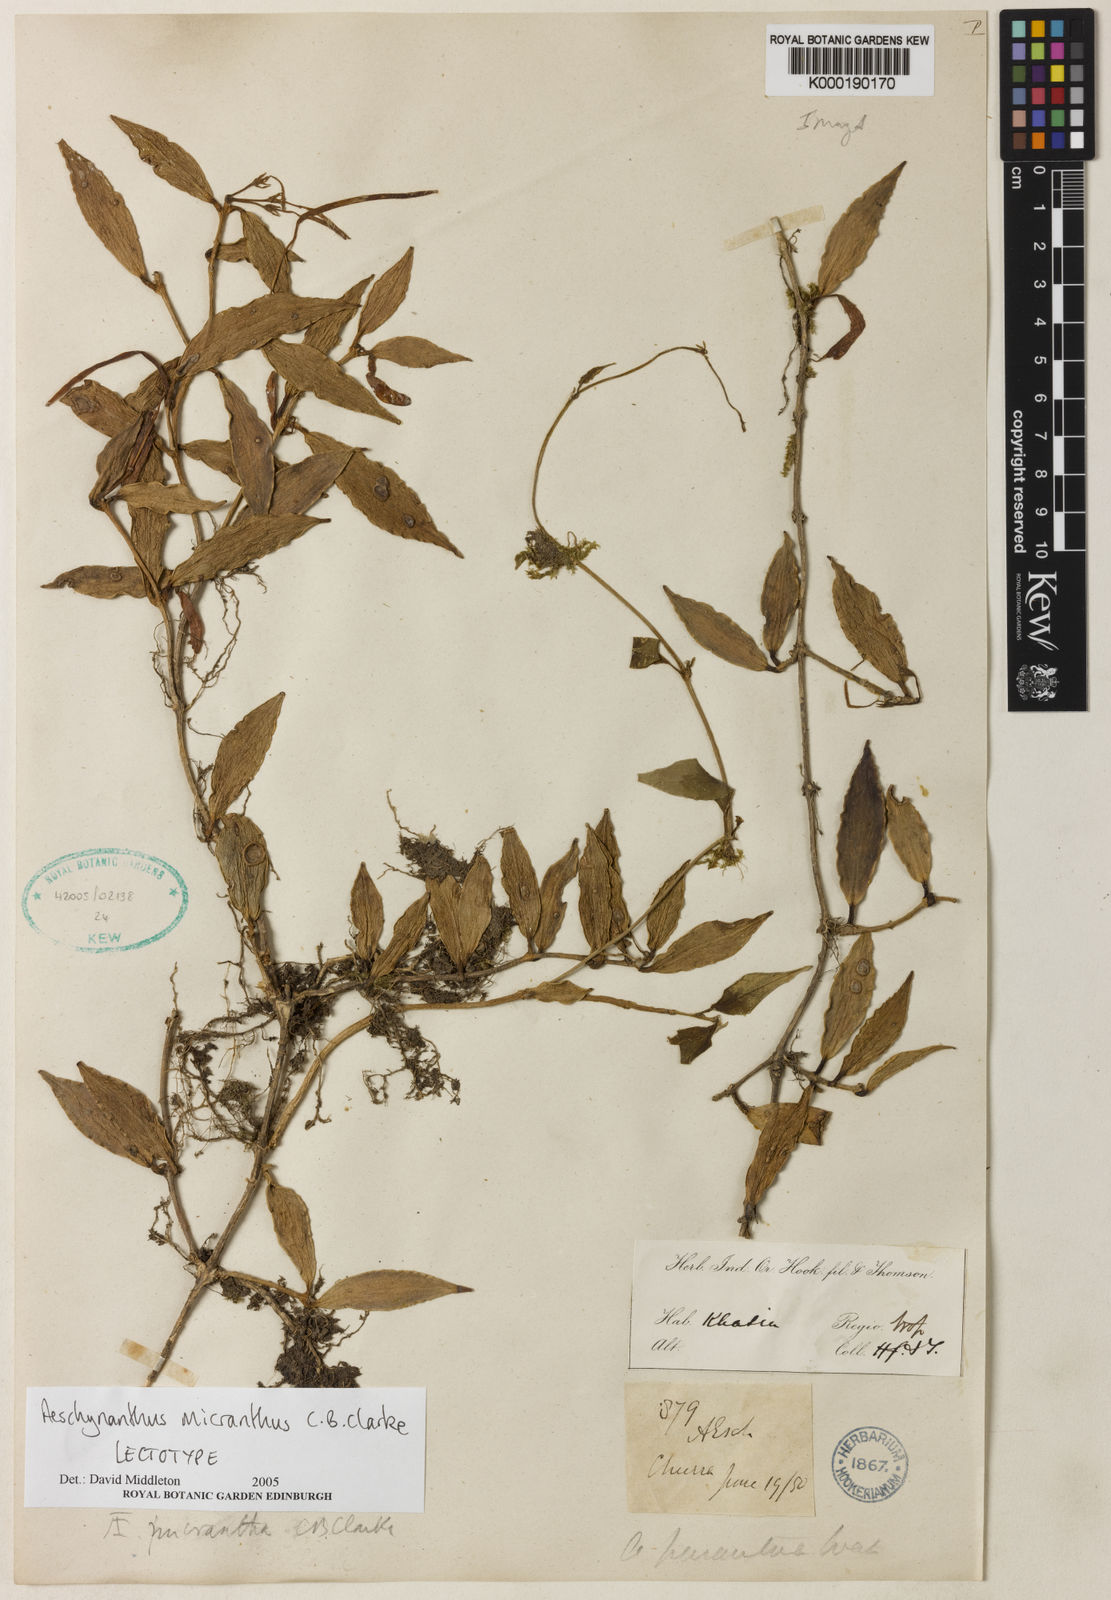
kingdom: Plantae
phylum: Tracheophyta
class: Magnoliopsida
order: Lamiales
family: Gesneriaceae
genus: Aeschynanthus
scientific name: Aeschynanthus micranthus
